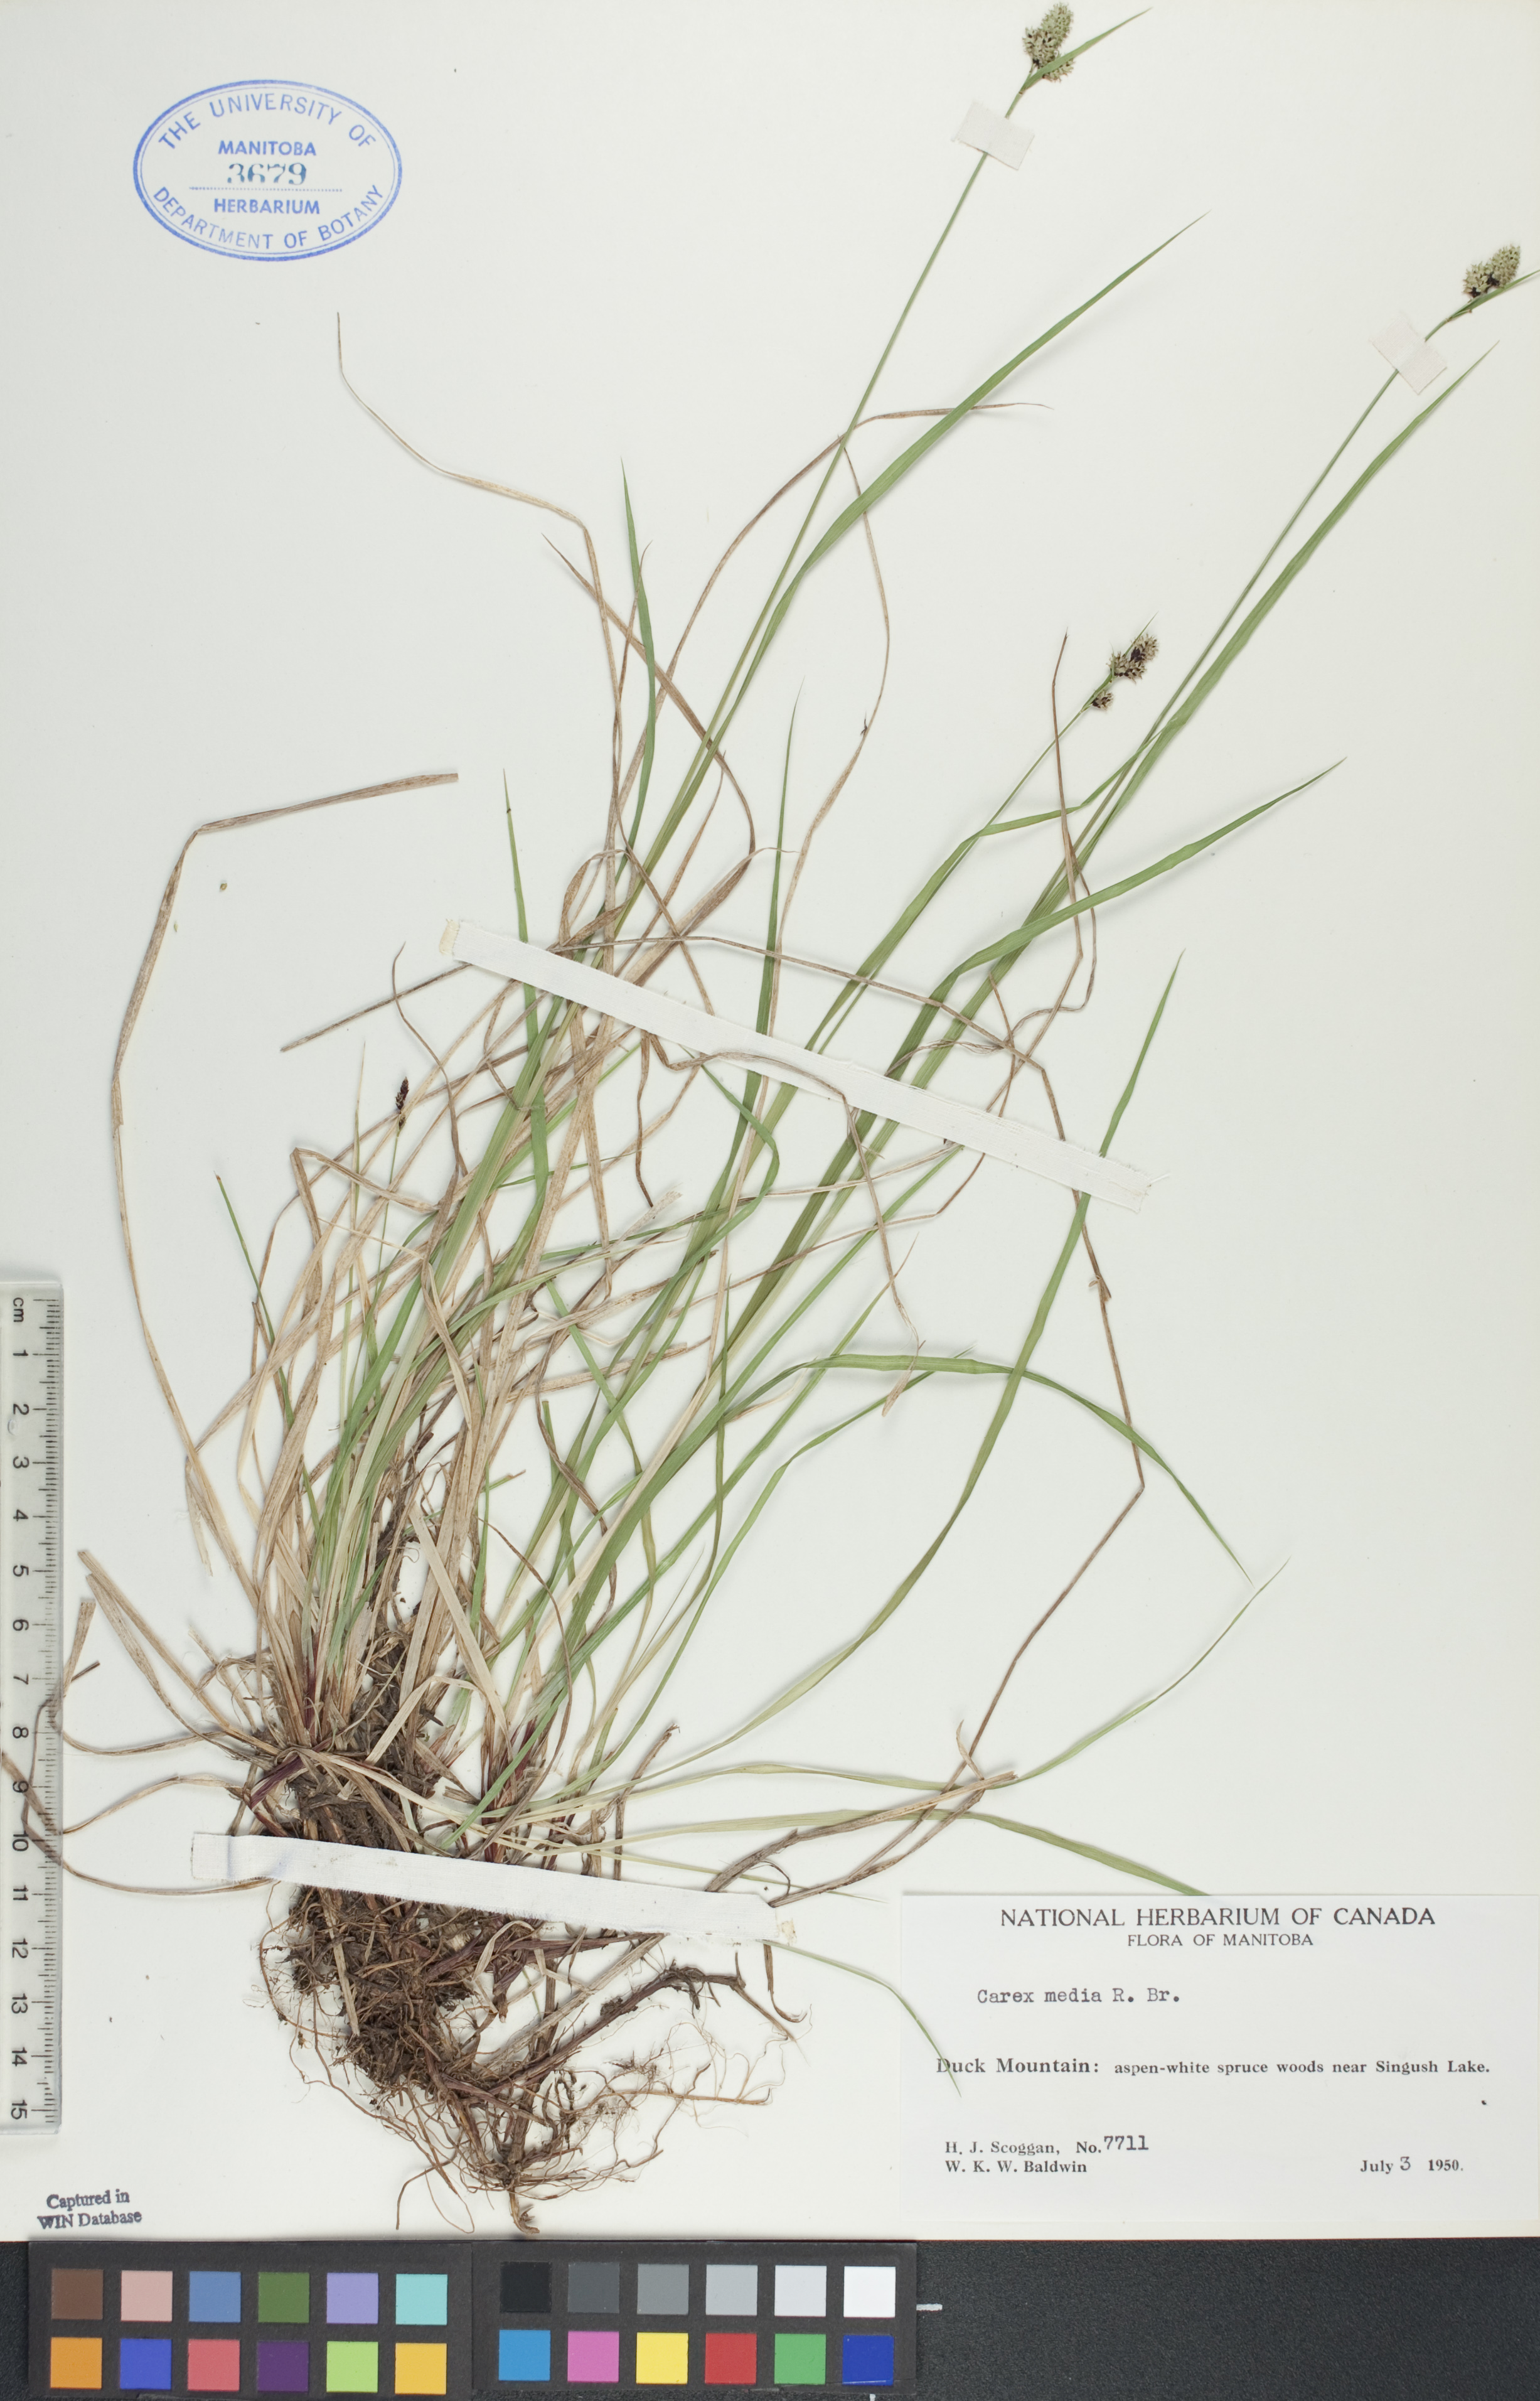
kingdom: Plantae
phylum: Tracheophyta
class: Liliopsida
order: Poales
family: Cyperaceae
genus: Carex
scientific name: Carex media
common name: Alpine sedge
